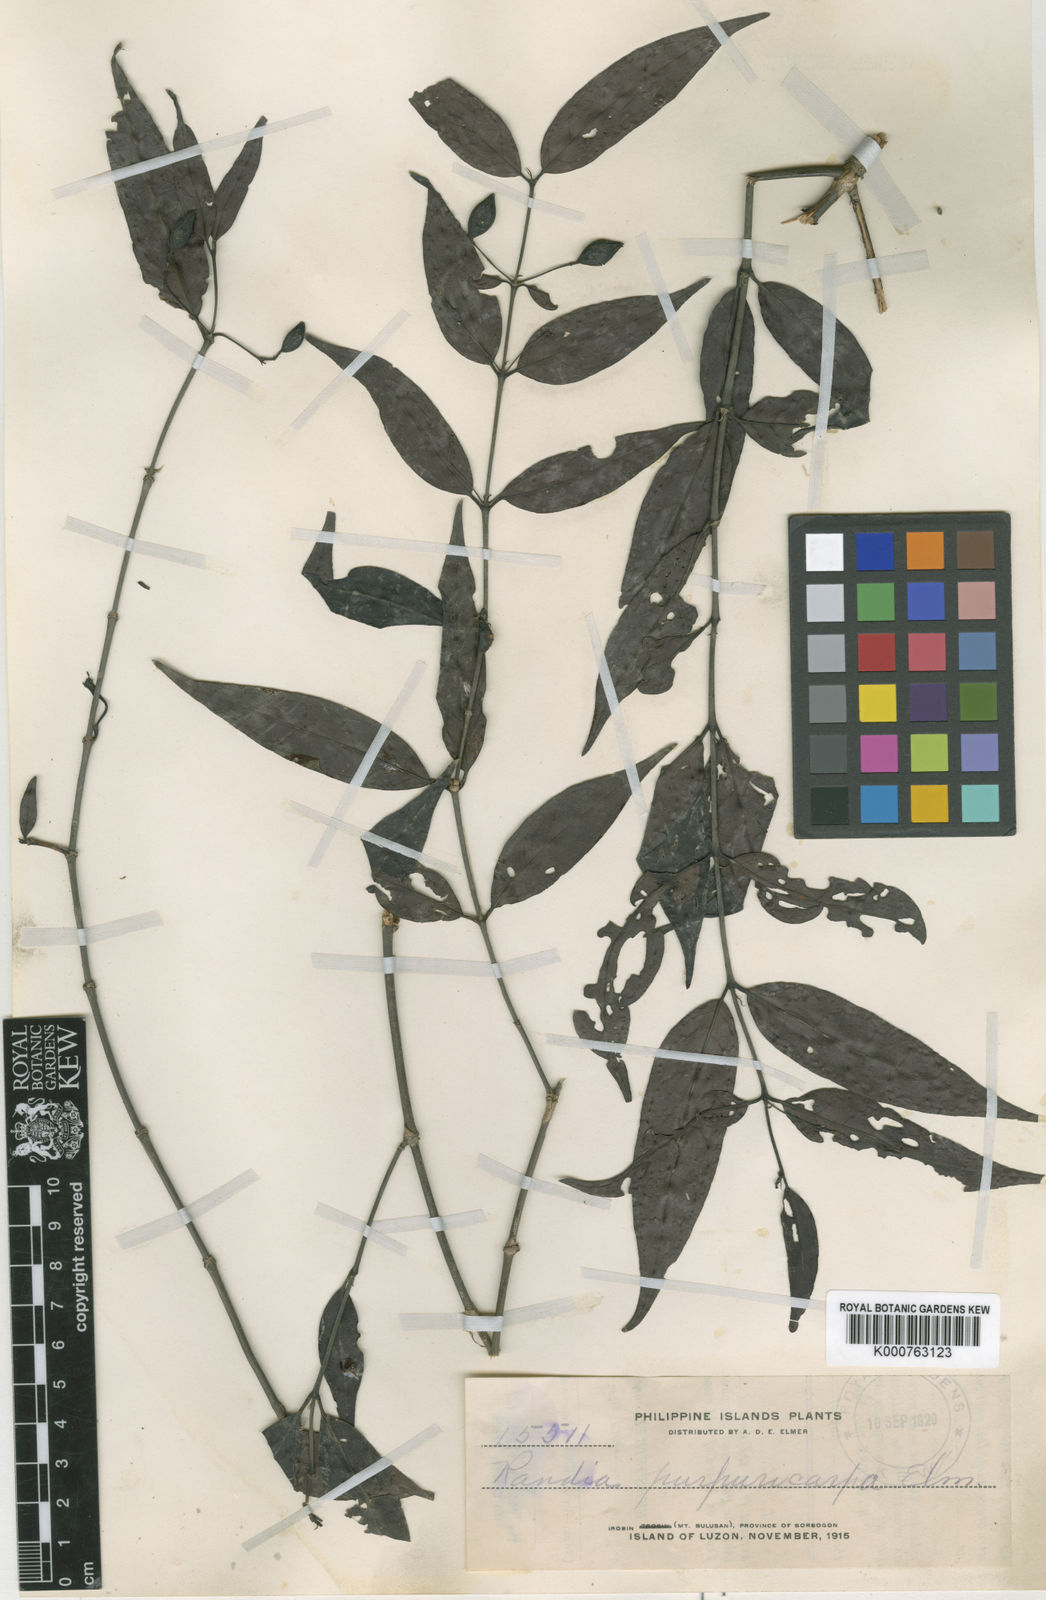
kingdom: Plantae
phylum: Tracheophyta
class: Magnoliopsida
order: Gentianales
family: Rubiaceae
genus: Hypobathrum
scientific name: Hypobathrum purpuricarpum
